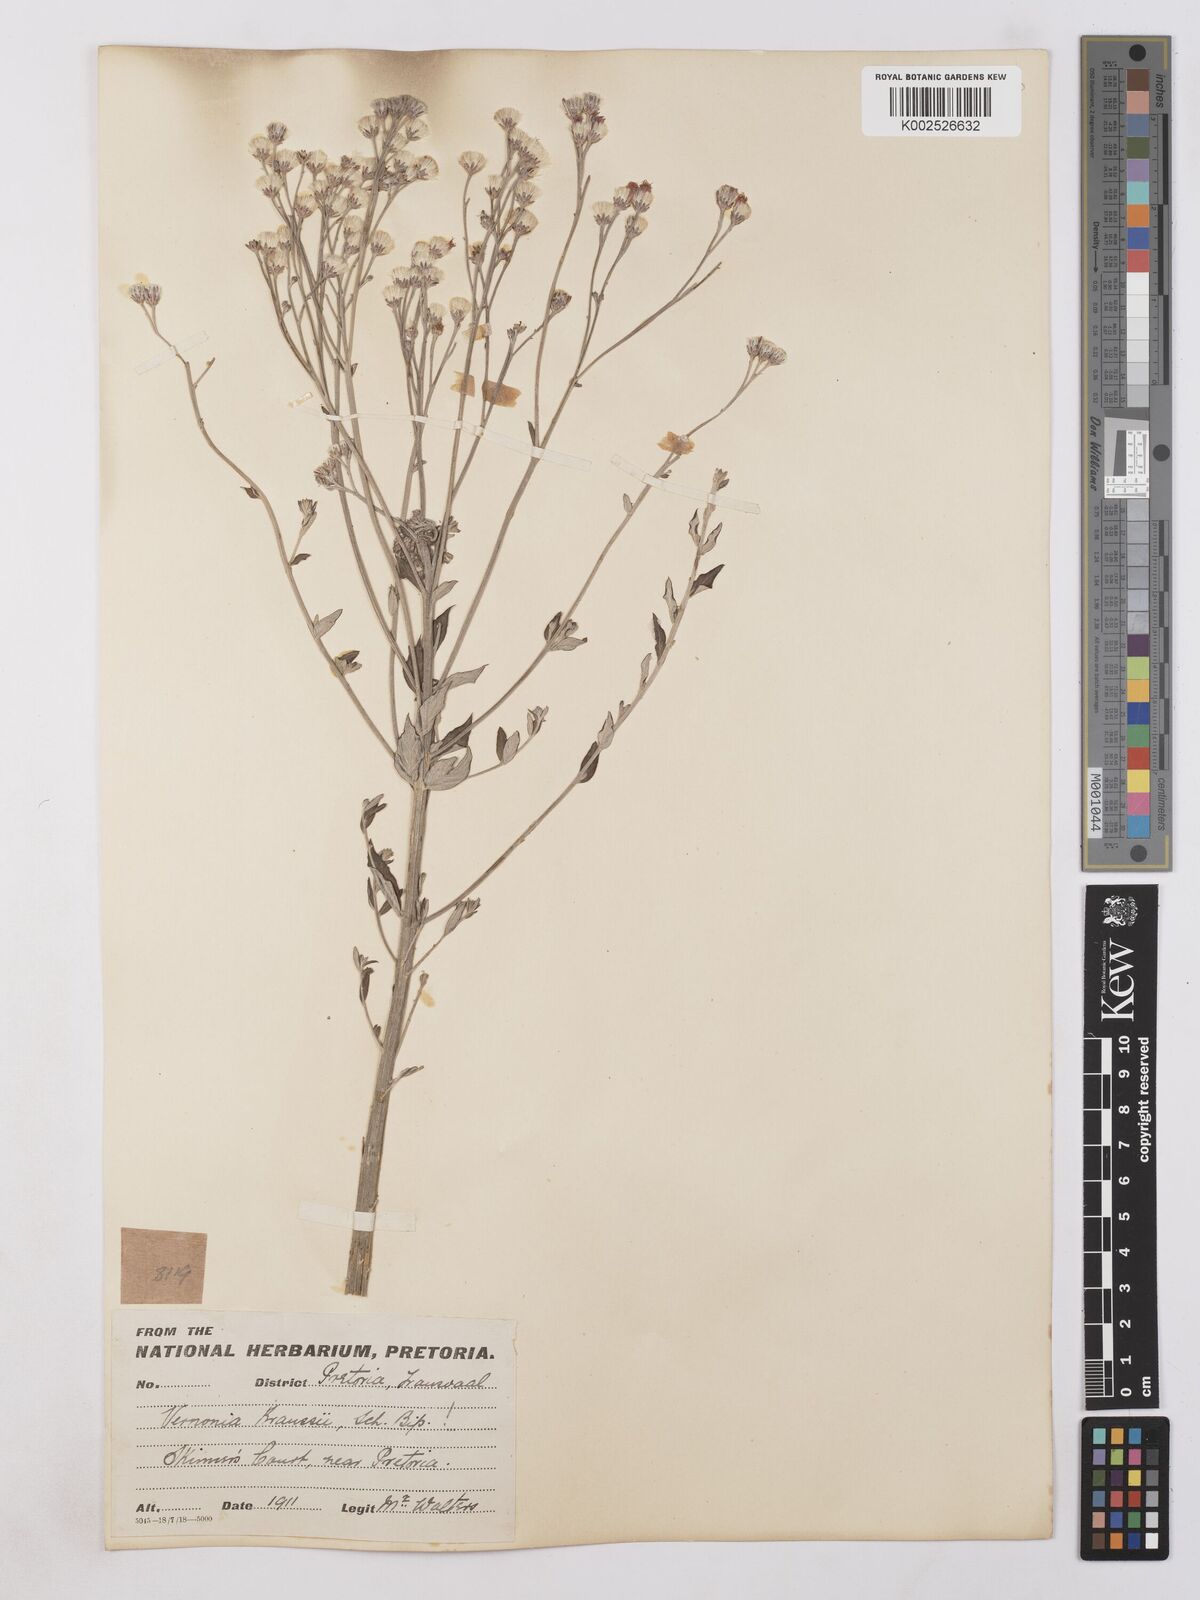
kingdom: Plantae
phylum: Tracheophyta
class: Magnoliopsida
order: Asterales
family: Asteraceae
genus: Hilliardiella
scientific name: Hilliardiella oligocephala
